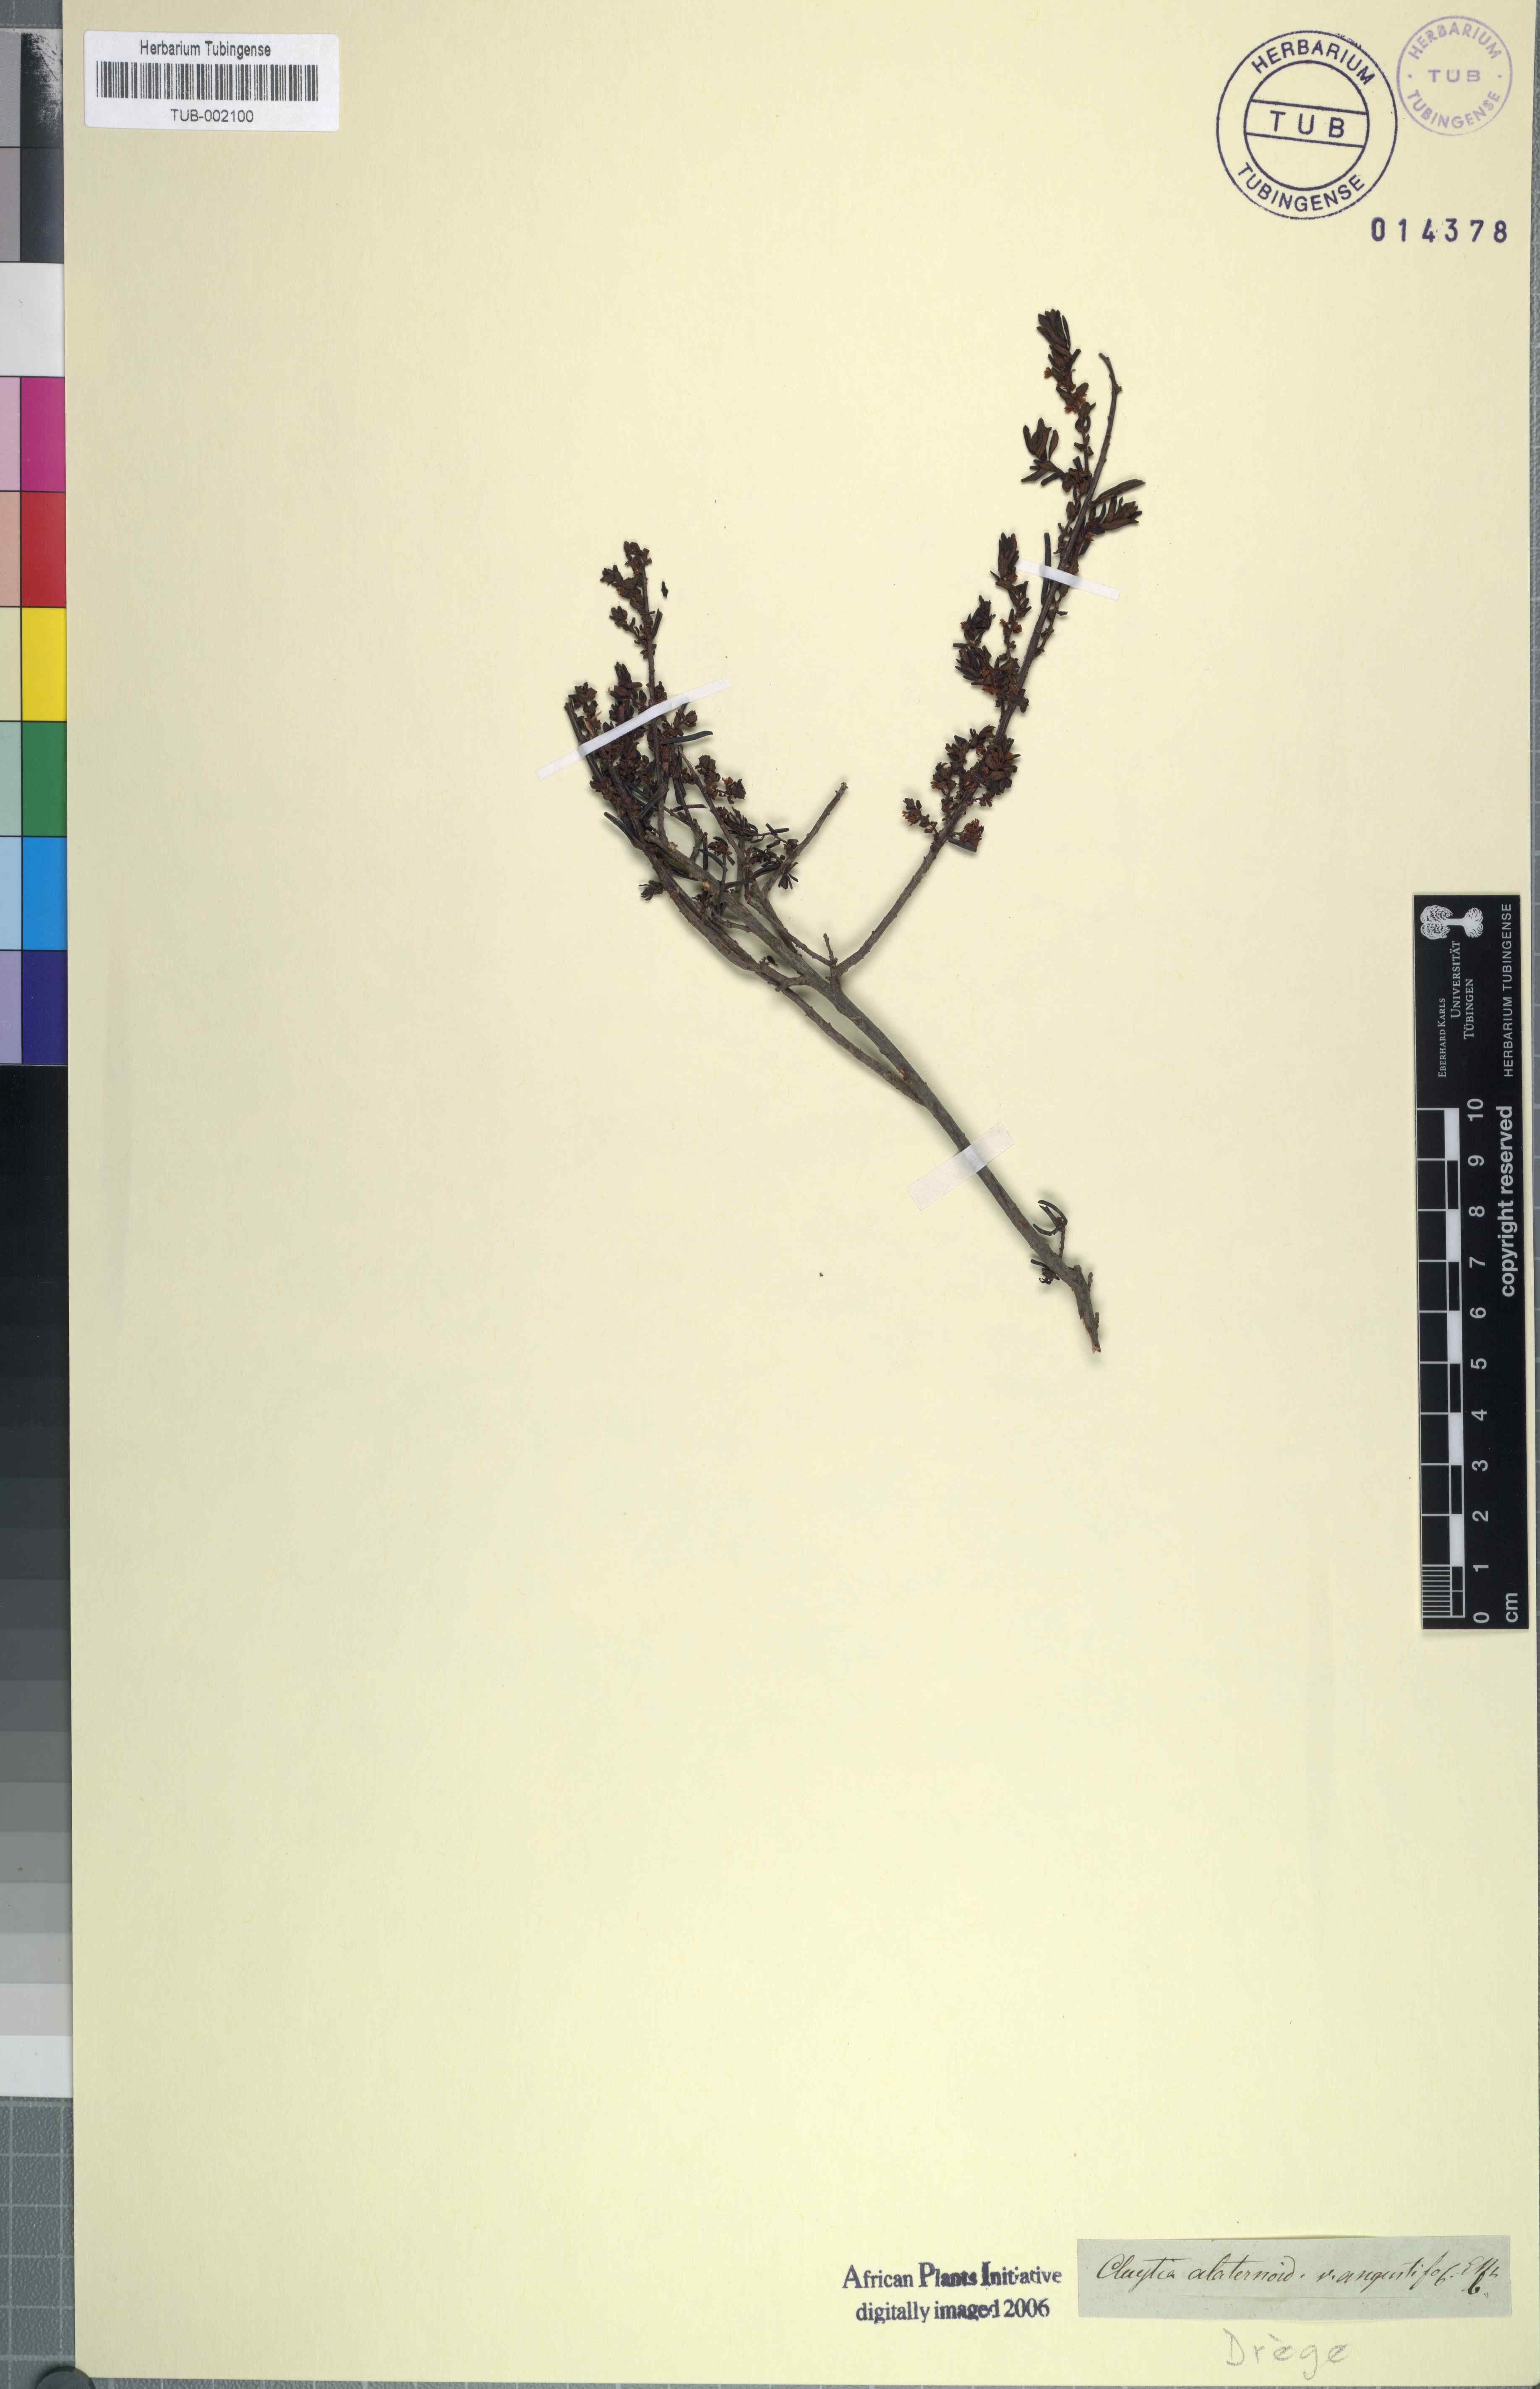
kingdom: Plantae
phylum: Tracheophyta
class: Magnoliopsida
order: Malpighiales
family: Peraceae
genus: Clutia
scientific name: Clutia alaternoides
